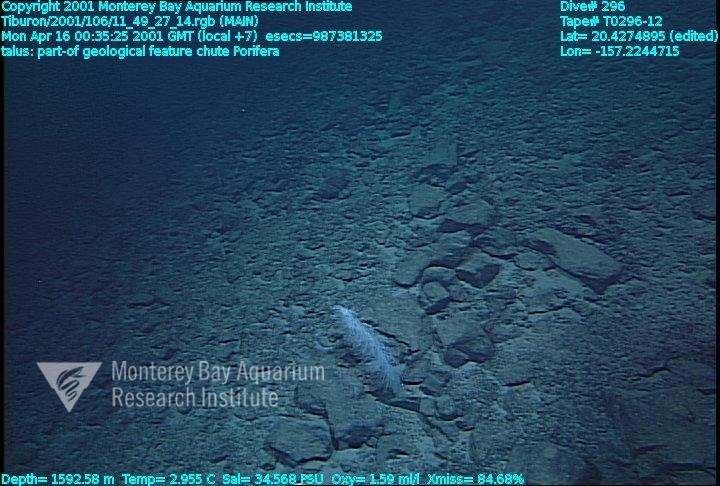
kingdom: Animalia
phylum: Porifera
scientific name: Porifera
